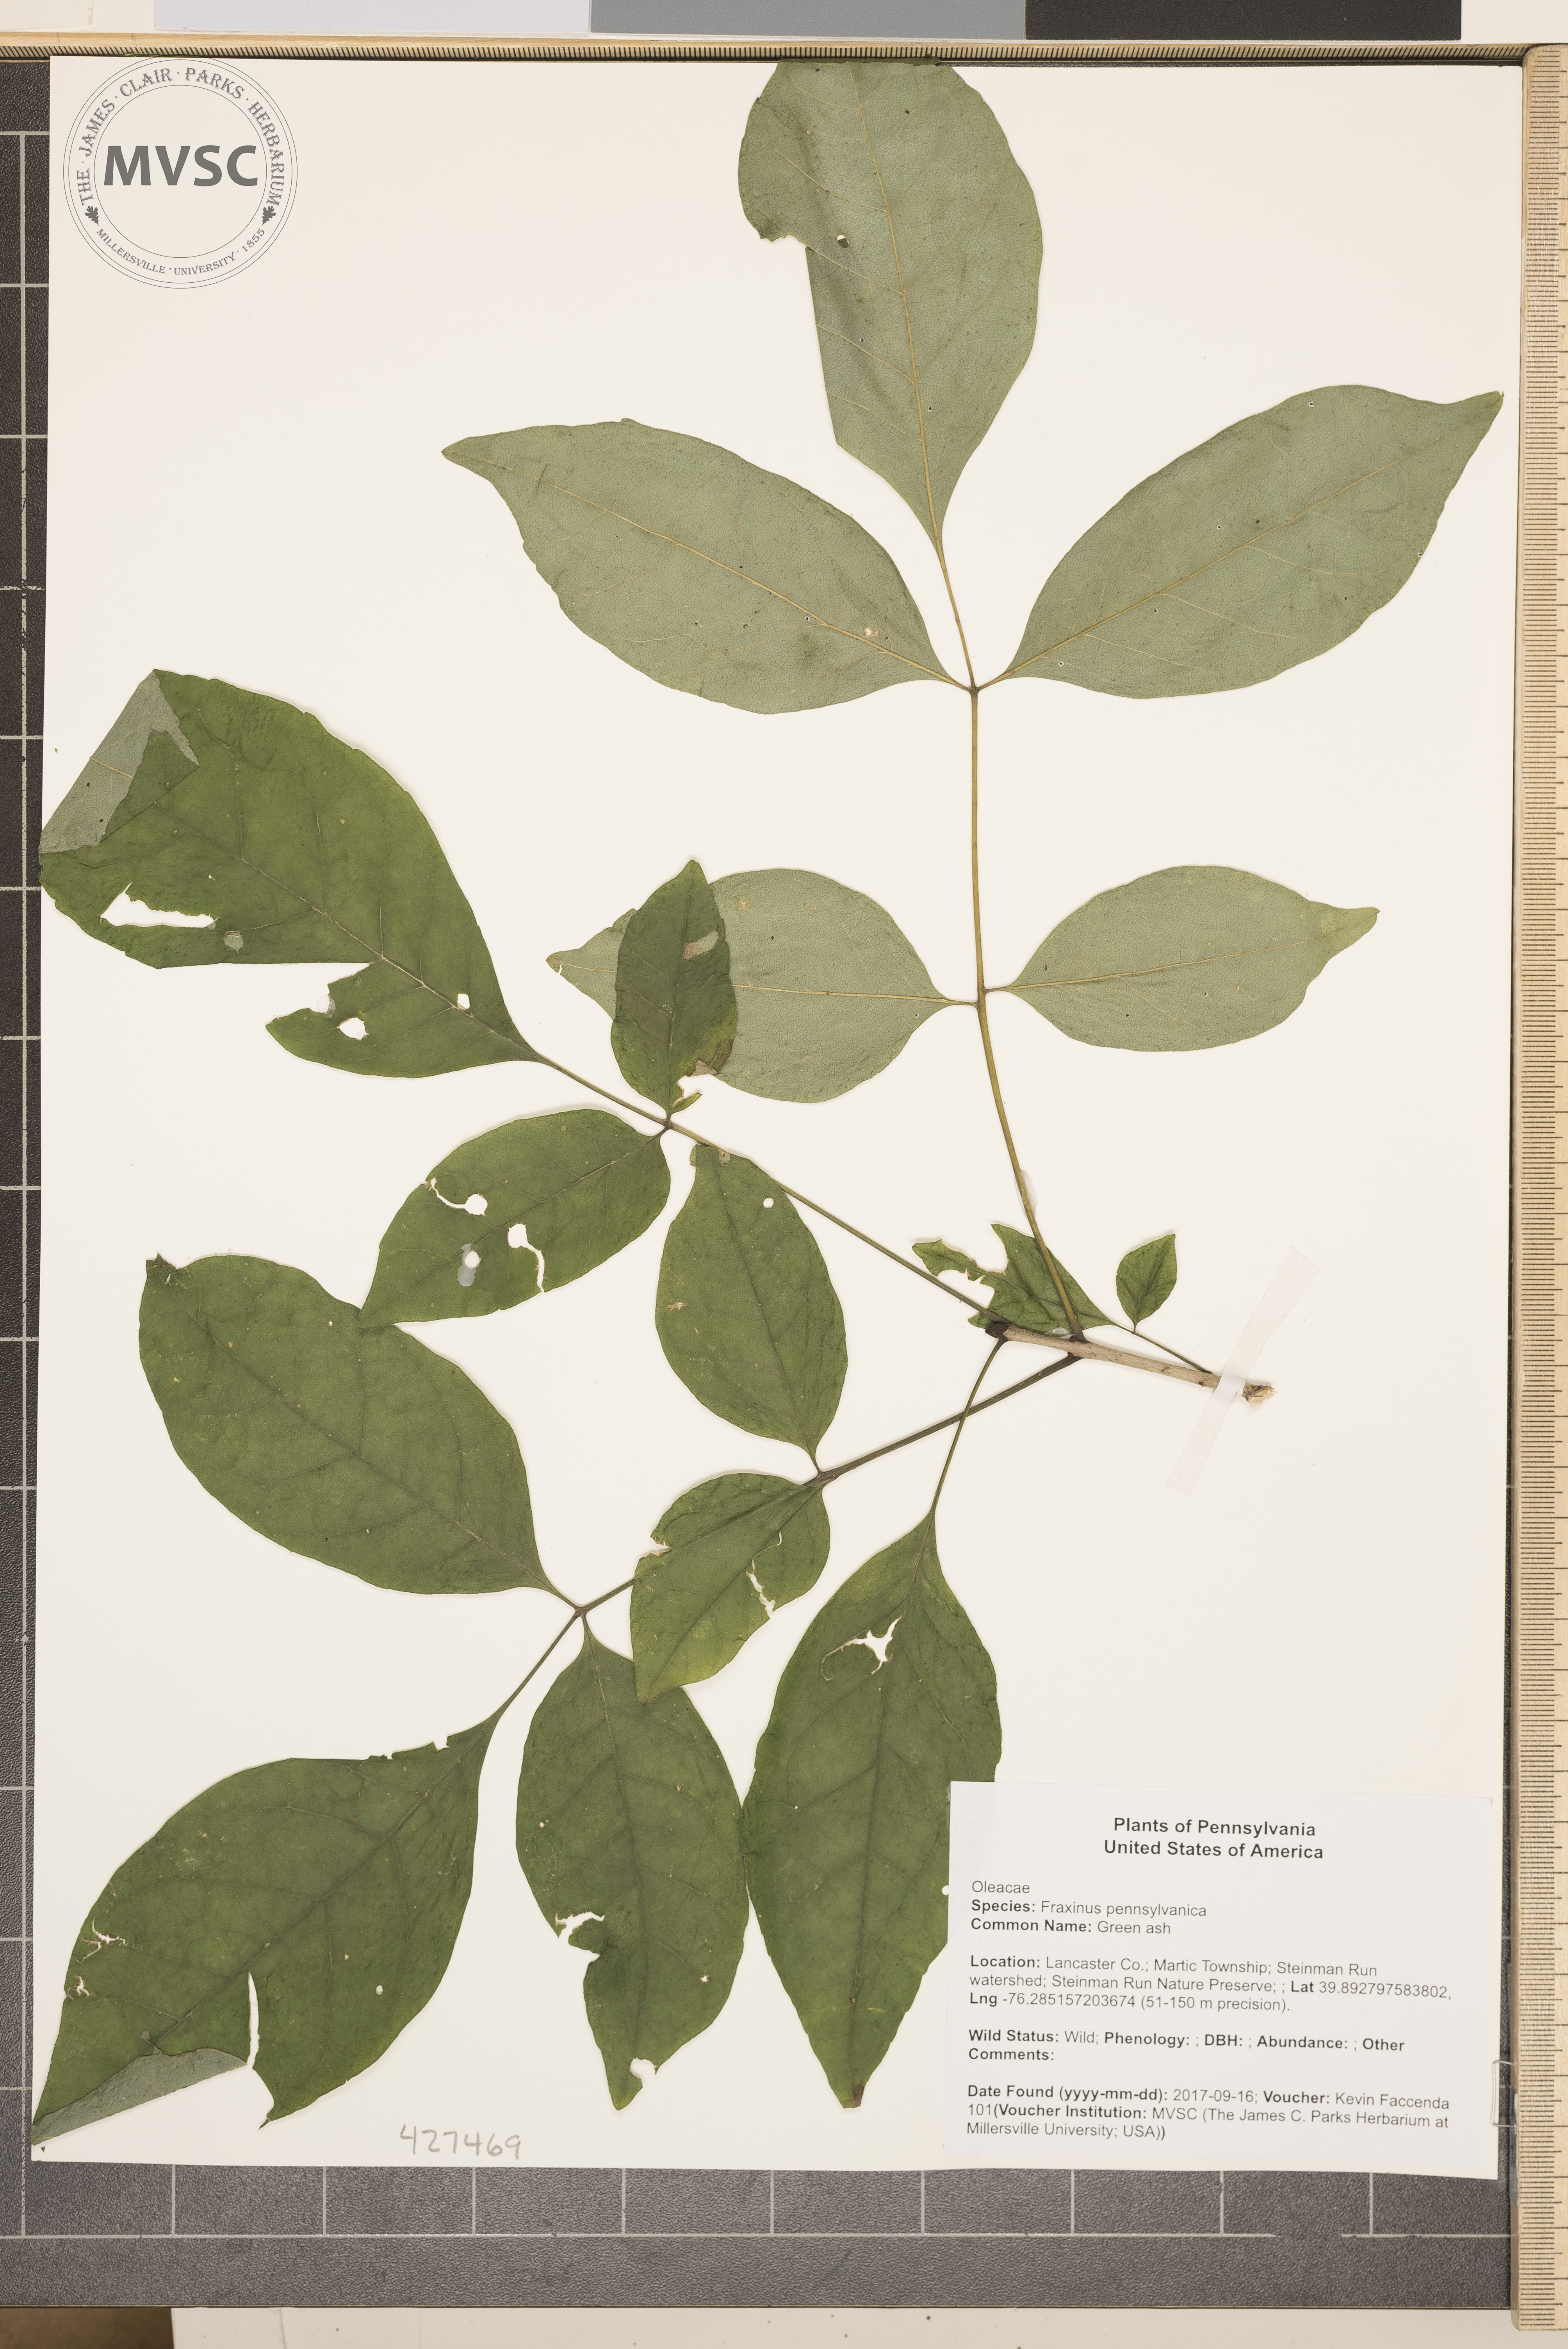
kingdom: Plantae
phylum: Tracheophyta
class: Magnoliopsida
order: Lamiales
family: Oleaceae
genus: Fraxinus
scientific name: Fraxinus pennsylvanica
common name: Green ash
